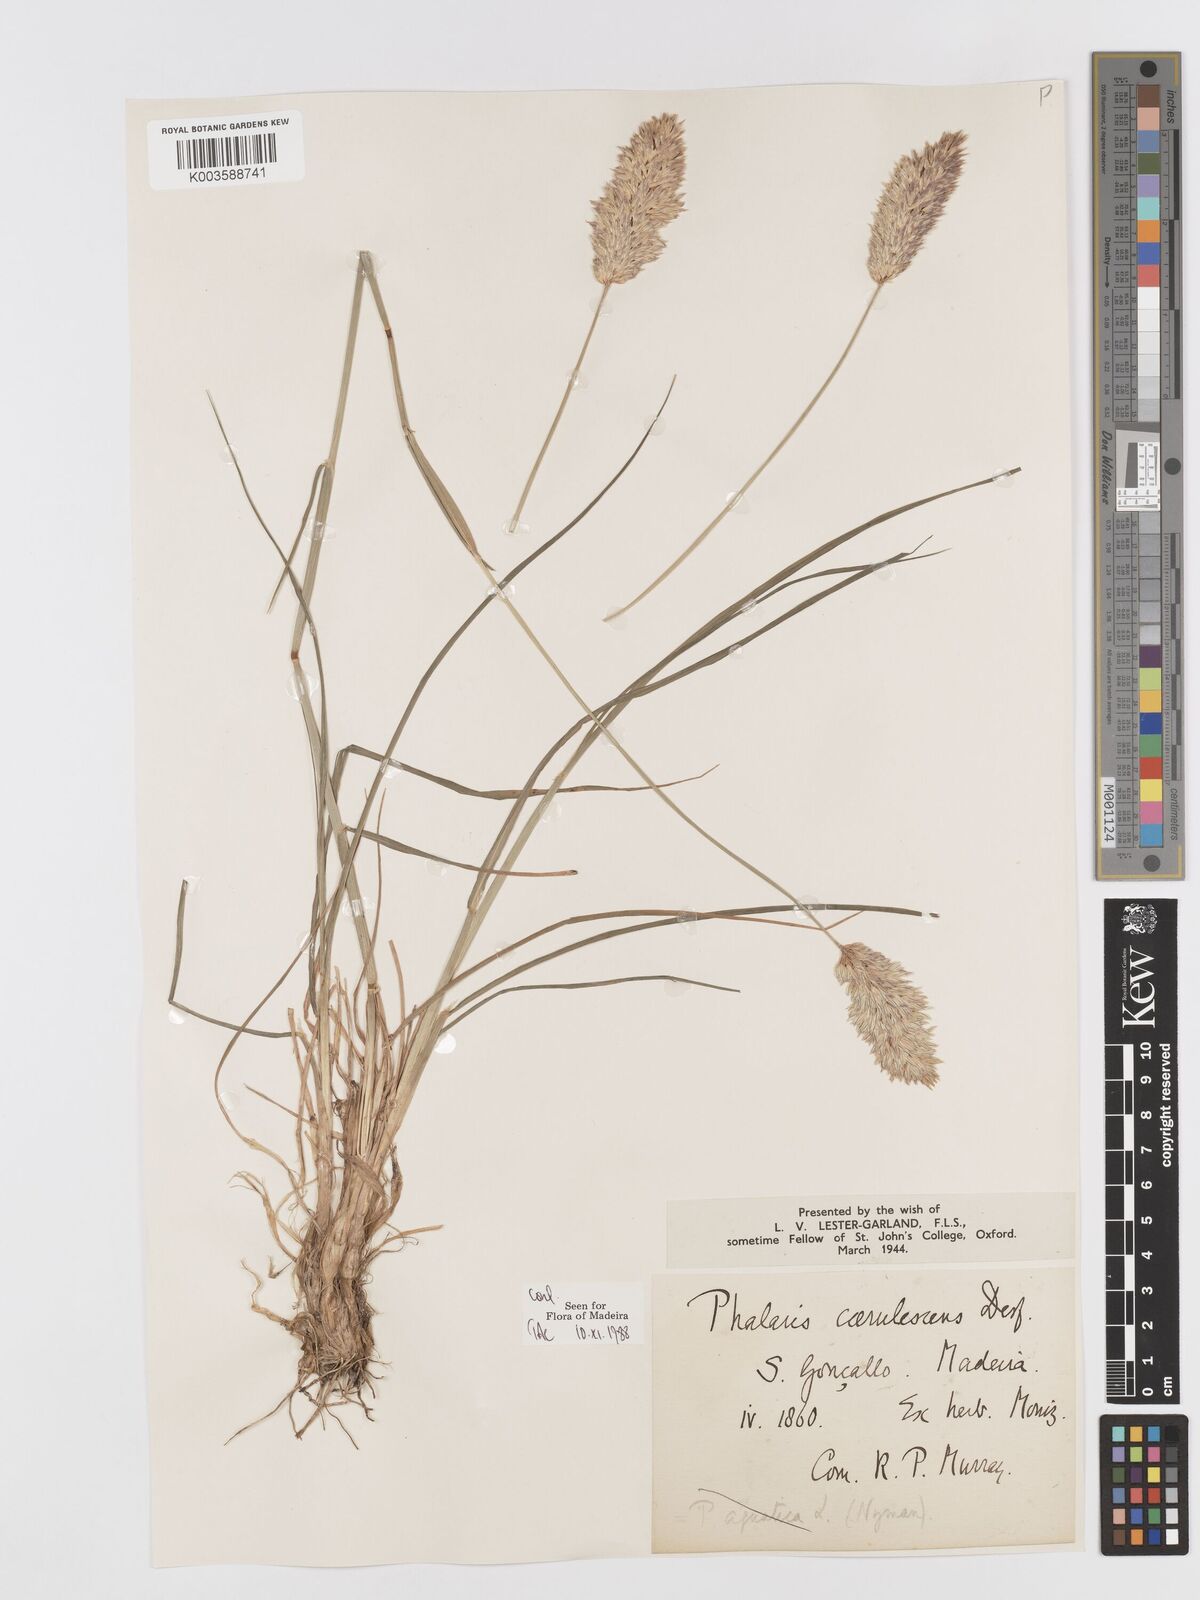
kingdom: Plantae
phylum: Tracheophyta
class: Liliopsida
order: Poales
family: Poaceae
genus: Phalaris
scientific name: Phalaris coerulescens
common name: Sunolgrass
